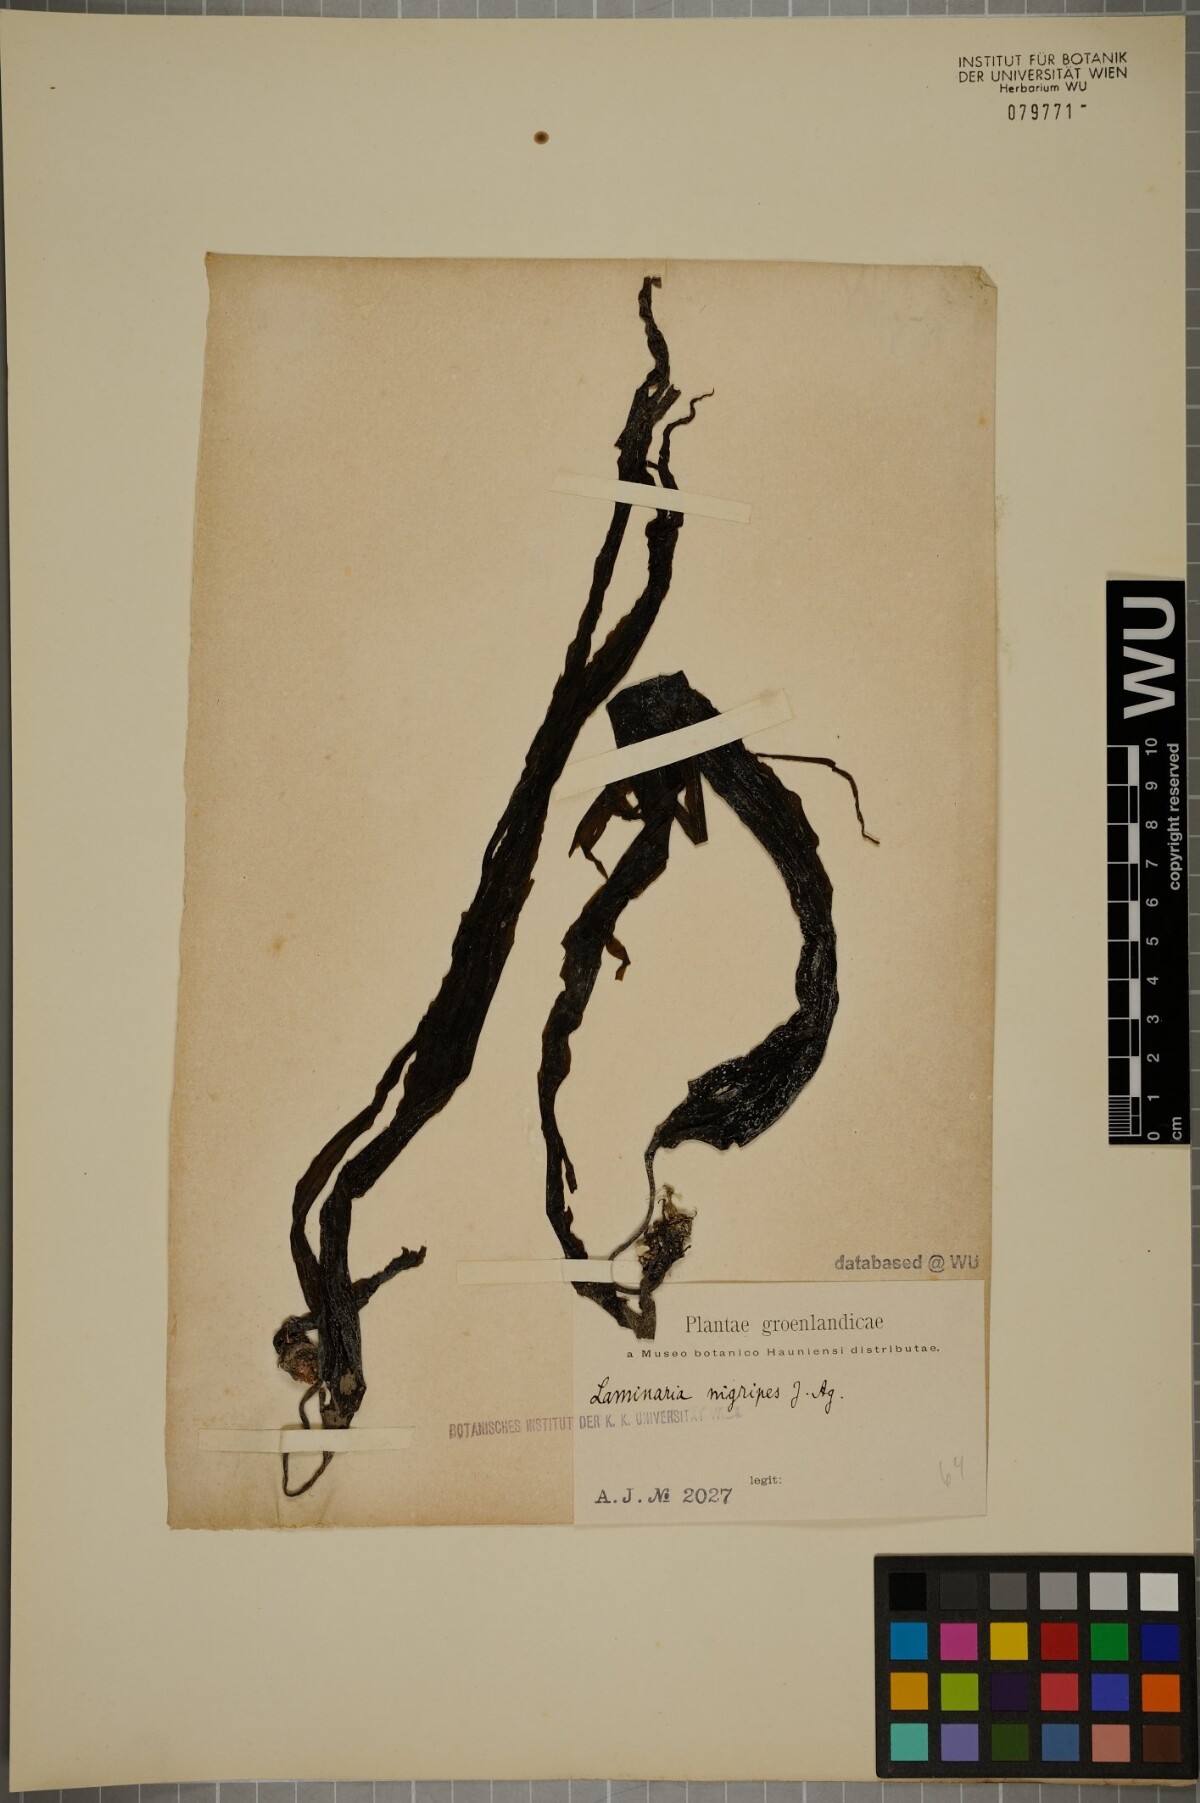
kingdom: Chromista
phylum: Ochrophyta
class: Phaeophyceae
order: Laminariales
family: Laminariaceae
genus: Hedophyllum
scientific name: Hedophyllum nigripes
